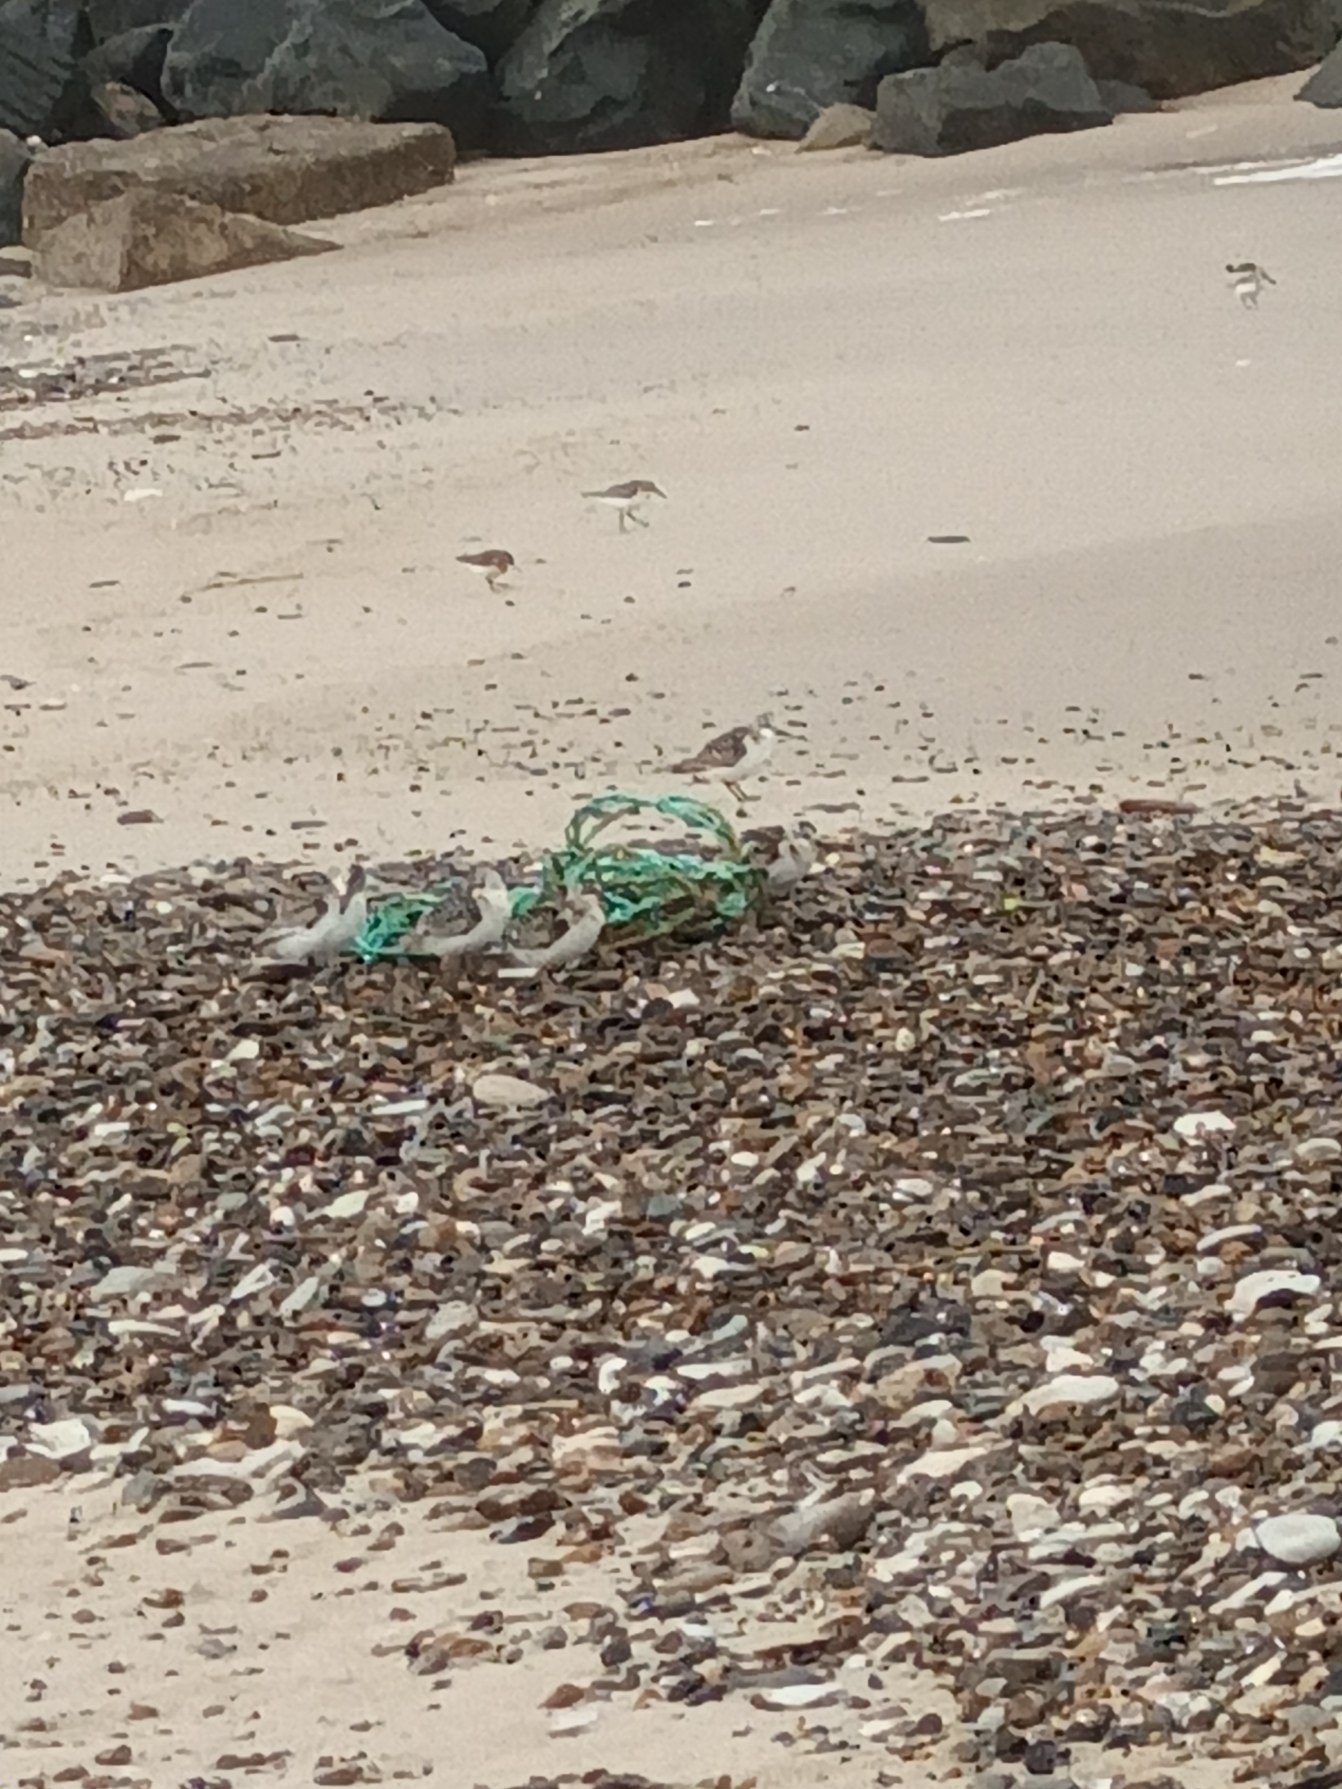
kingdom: Animalia
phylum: Chordata
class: Aves
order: Charadriiformes
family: Scolopacidae
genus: Calidris
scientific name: Calidris alba
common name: Sandløber
